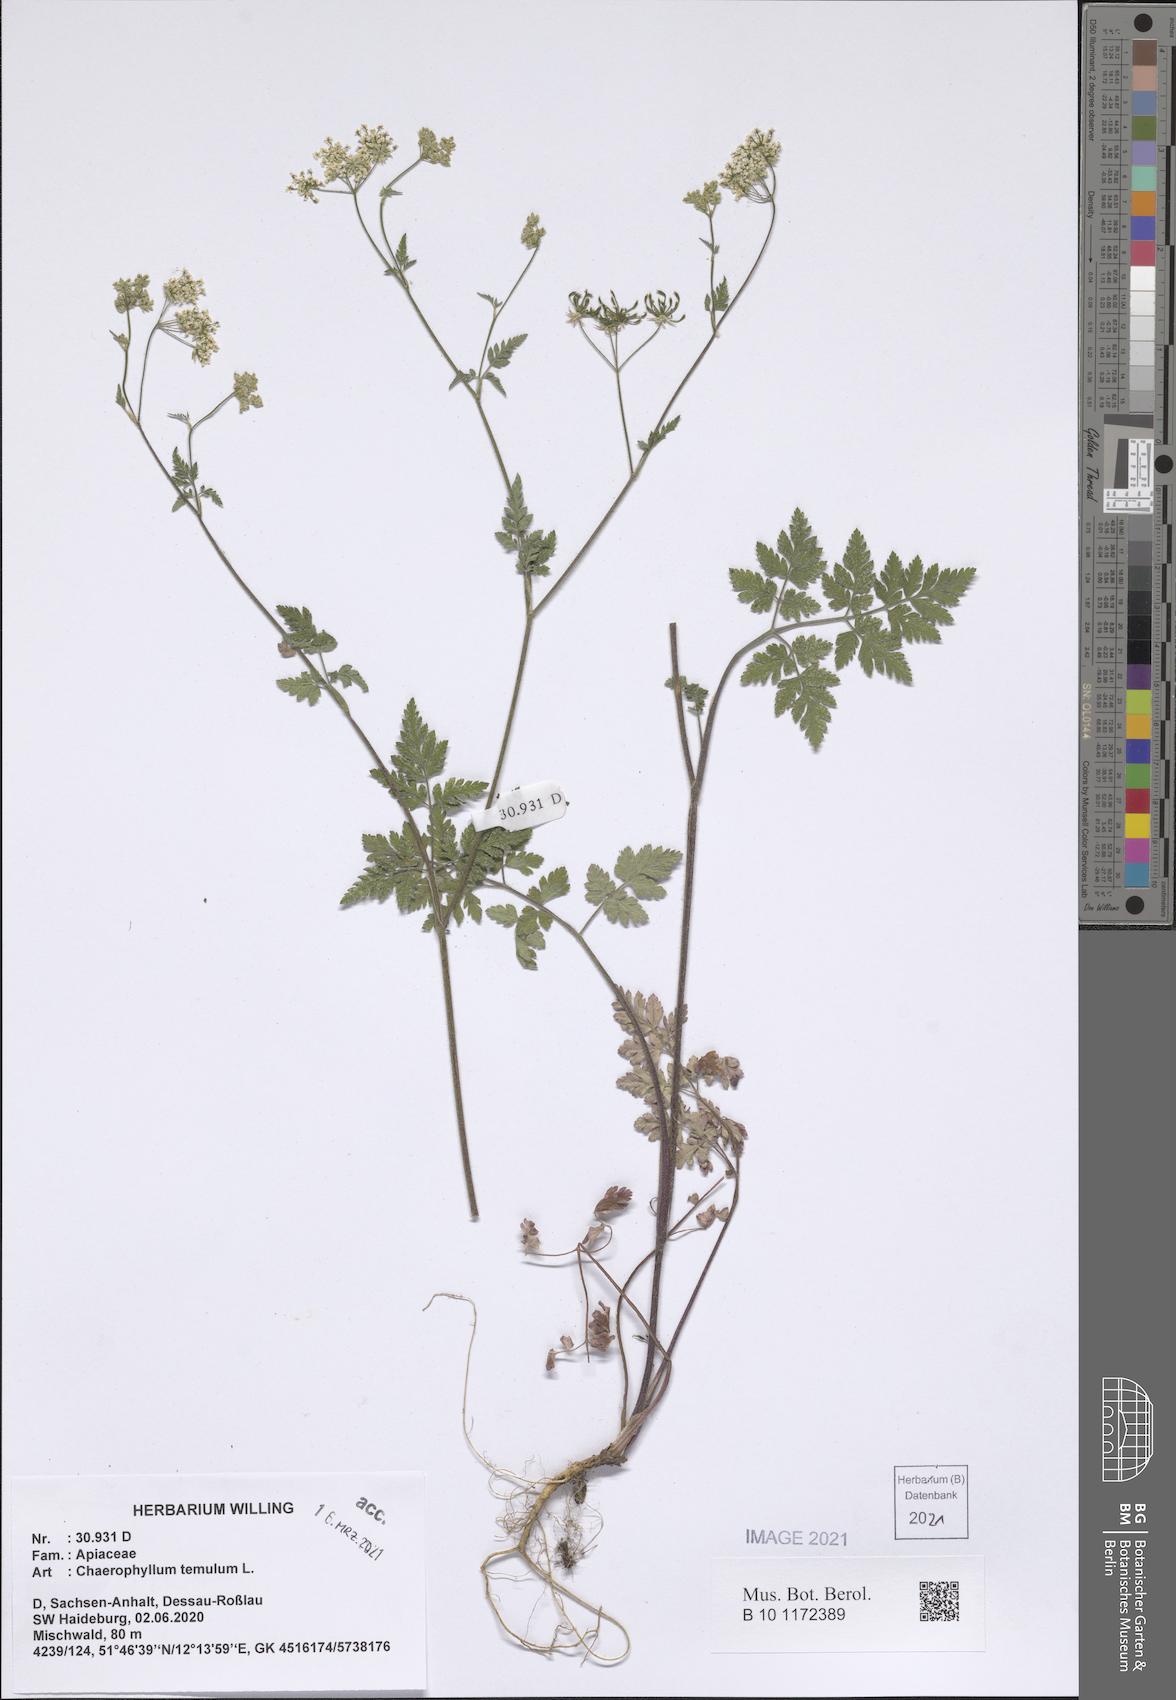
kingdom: Plantae
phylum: Tracheophyta
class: Magnoliopsida
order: Apiales
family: Apiaceae
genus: Chaerophyllum
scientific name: Chaerophyllum temulum
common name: Rough chervil
